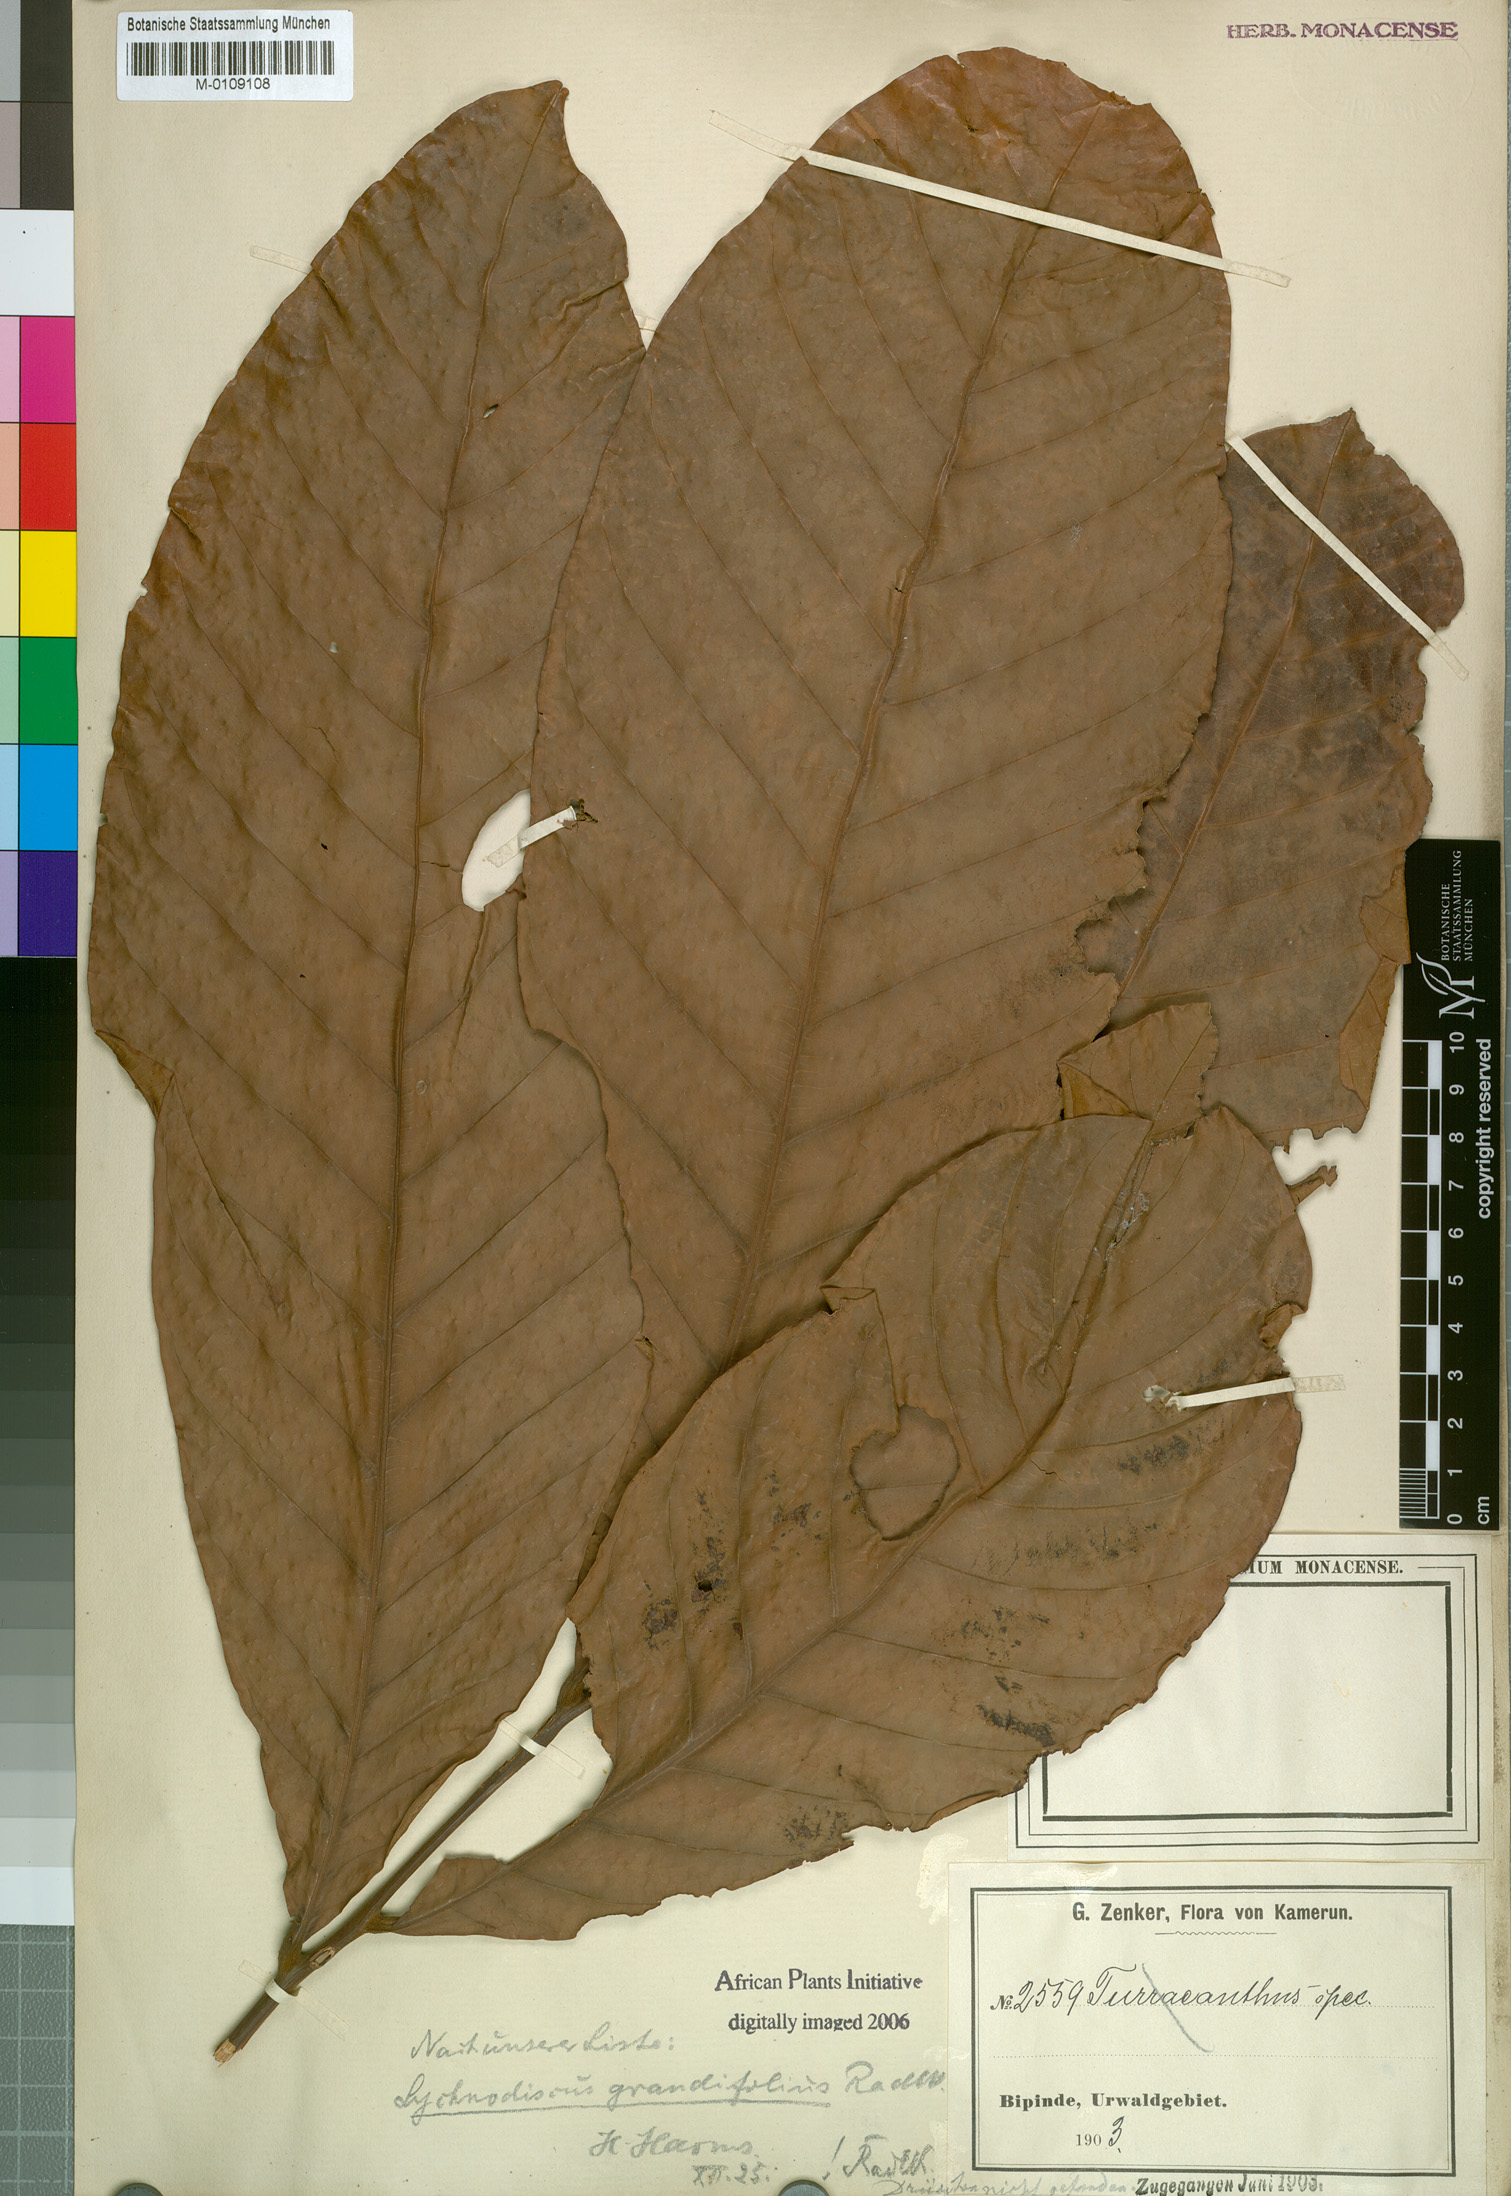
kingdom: Plantae
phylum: Tracheophyta
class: Magnoliopsida
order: Sapindales
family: Sapindaceae
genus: Lychnodiscus
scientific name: Lychnodiscus grandifolius
